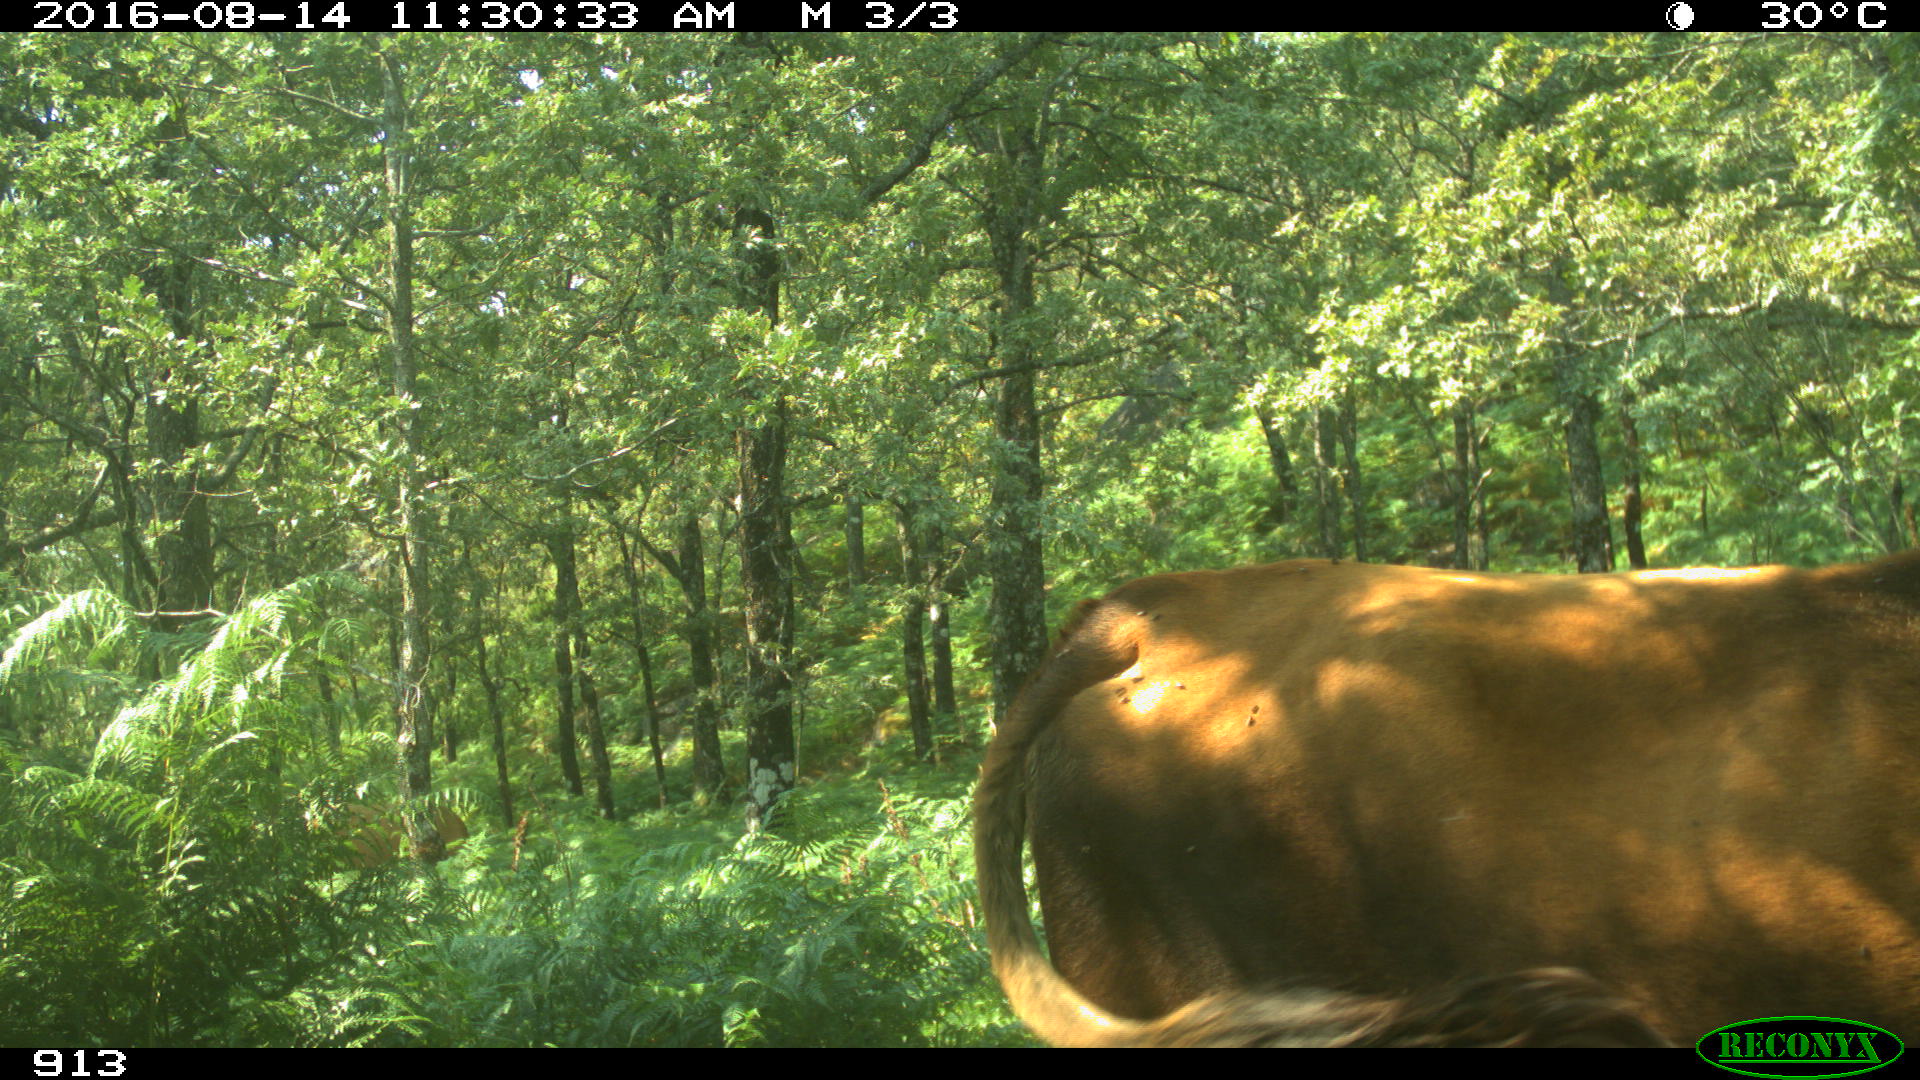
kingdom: Animalia
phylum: Chordata
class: Mammalia
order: Artiodactyla
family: Bovidae
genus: Bos
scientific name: Bos taurus
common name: Domesticated cattle
